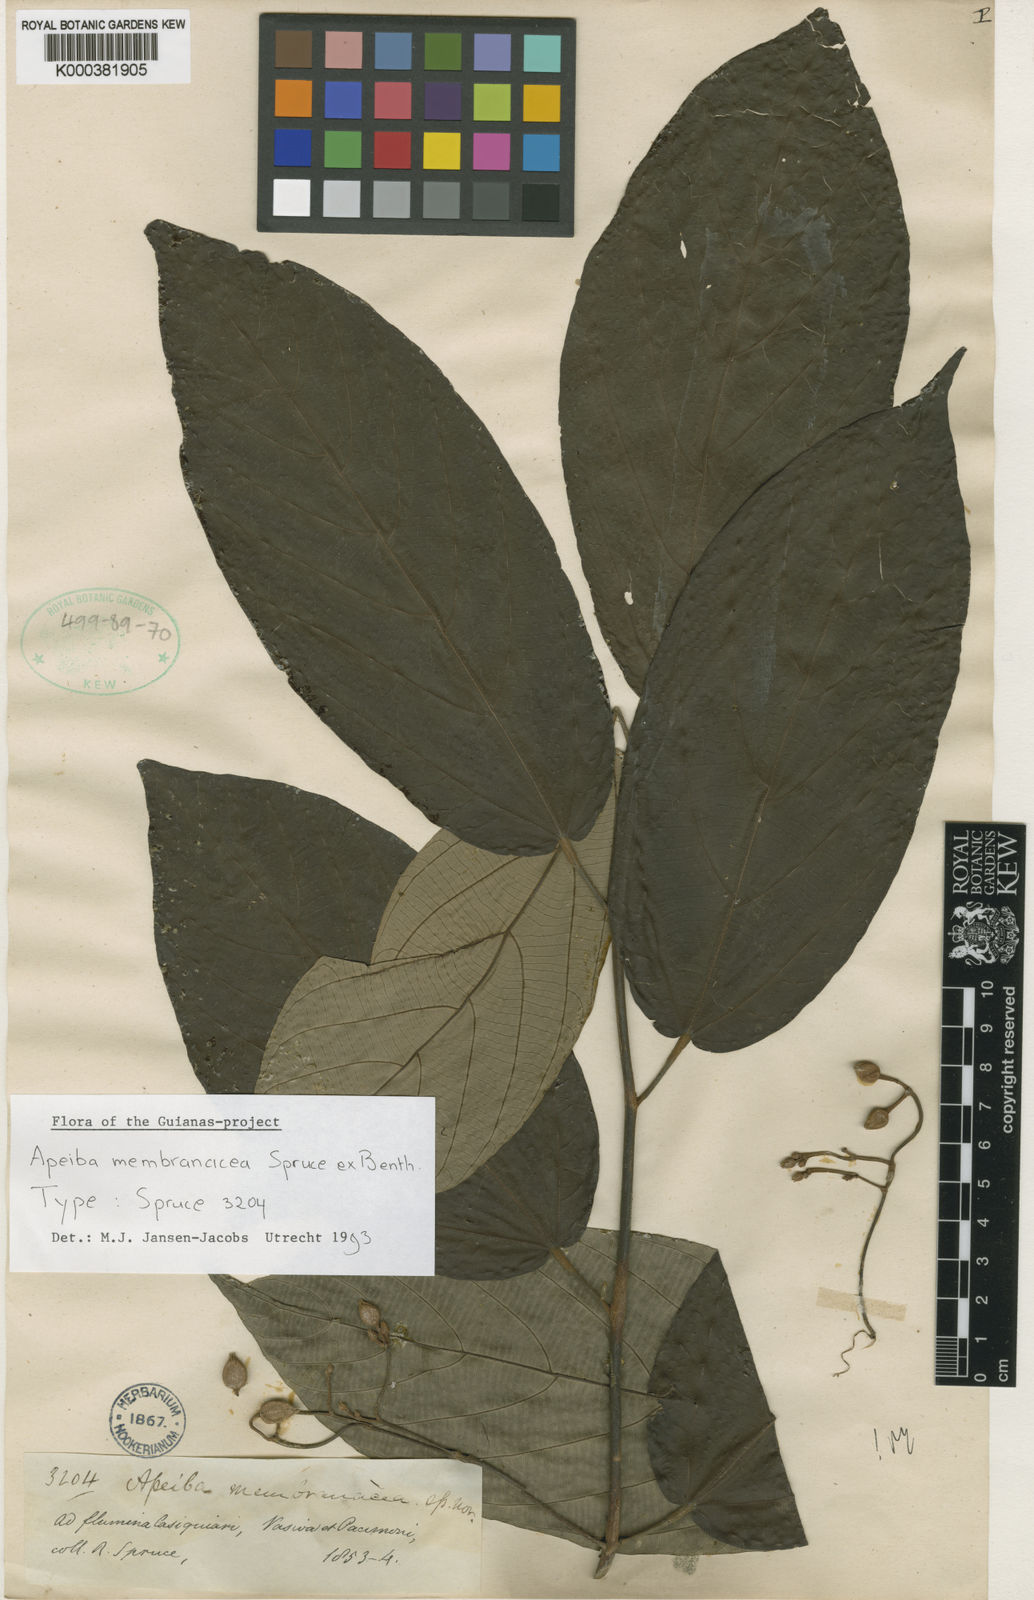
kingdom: Plantae
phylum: Tracheophyta
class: Magnoliopsida
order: Malvales
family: Malvaceae
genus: Apeiba
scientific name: Apeiba membranacea
